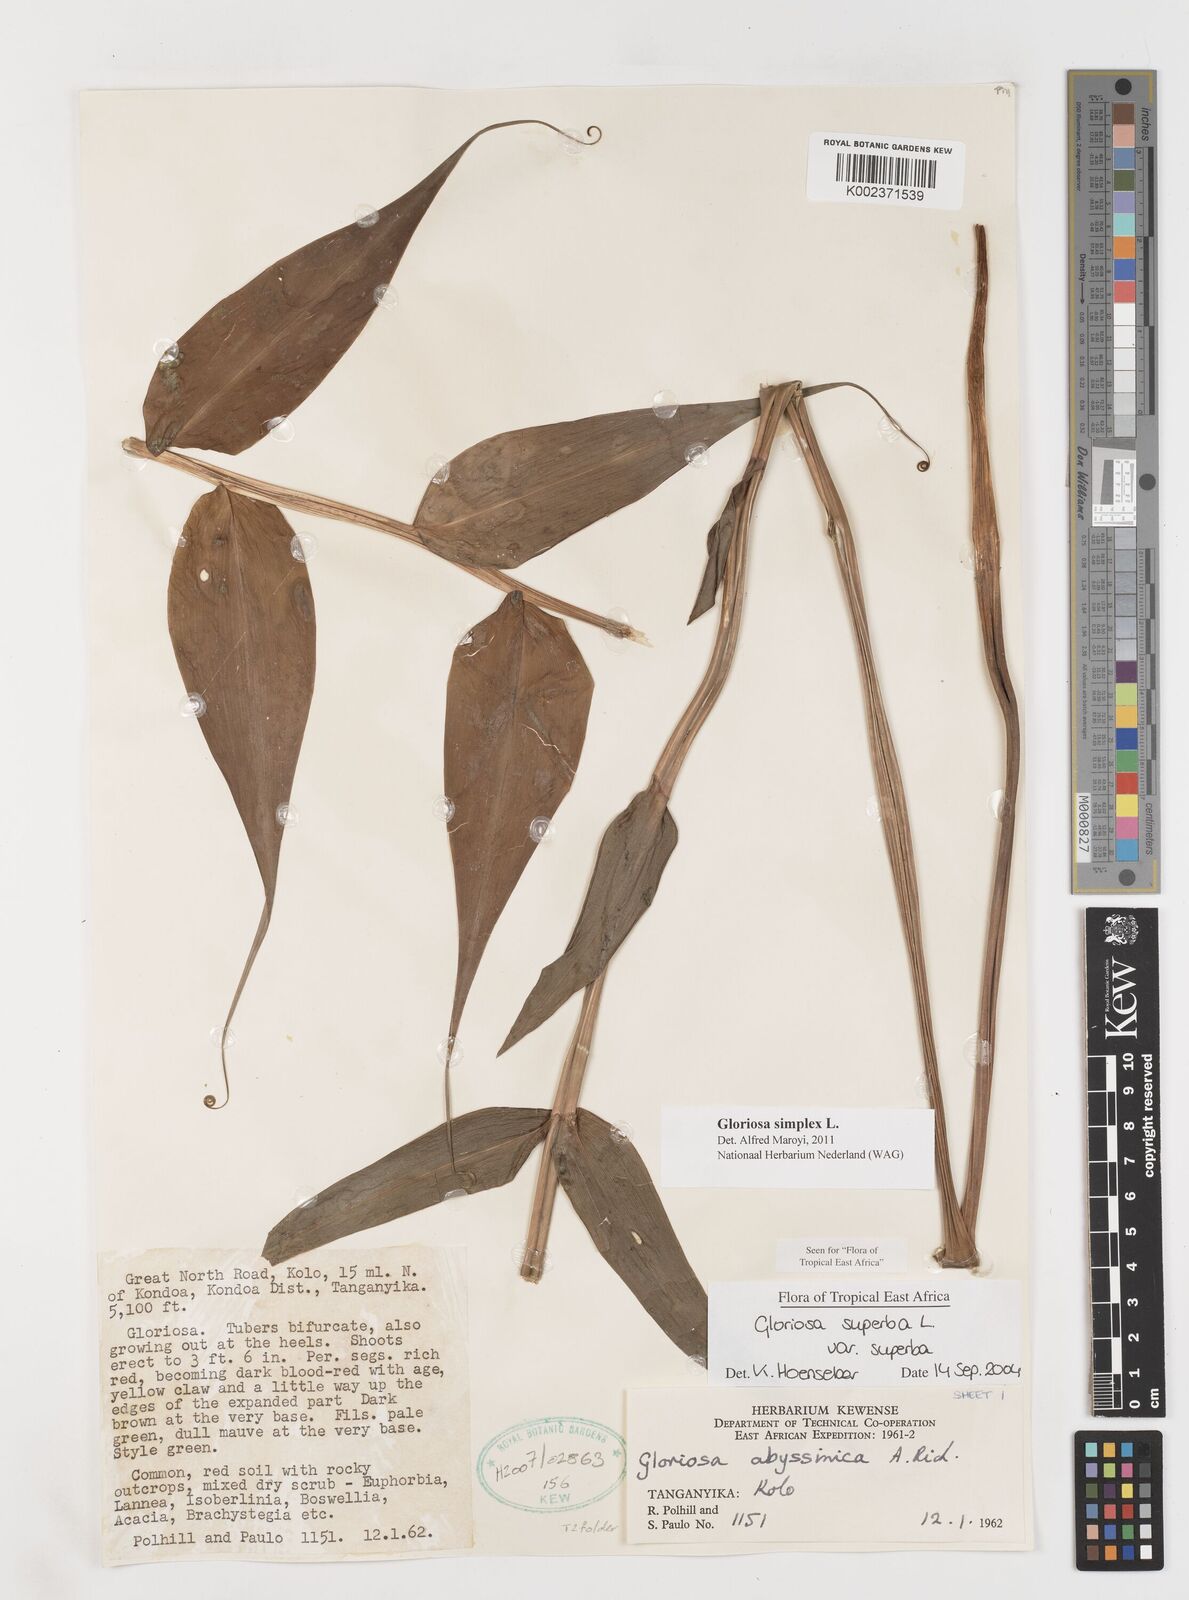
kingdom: Plantae
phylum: Tracheophyta
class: Liliopsida
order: Liliales
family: Colchicaceae
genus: Gloriosa
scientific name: Gloriosa simplex
